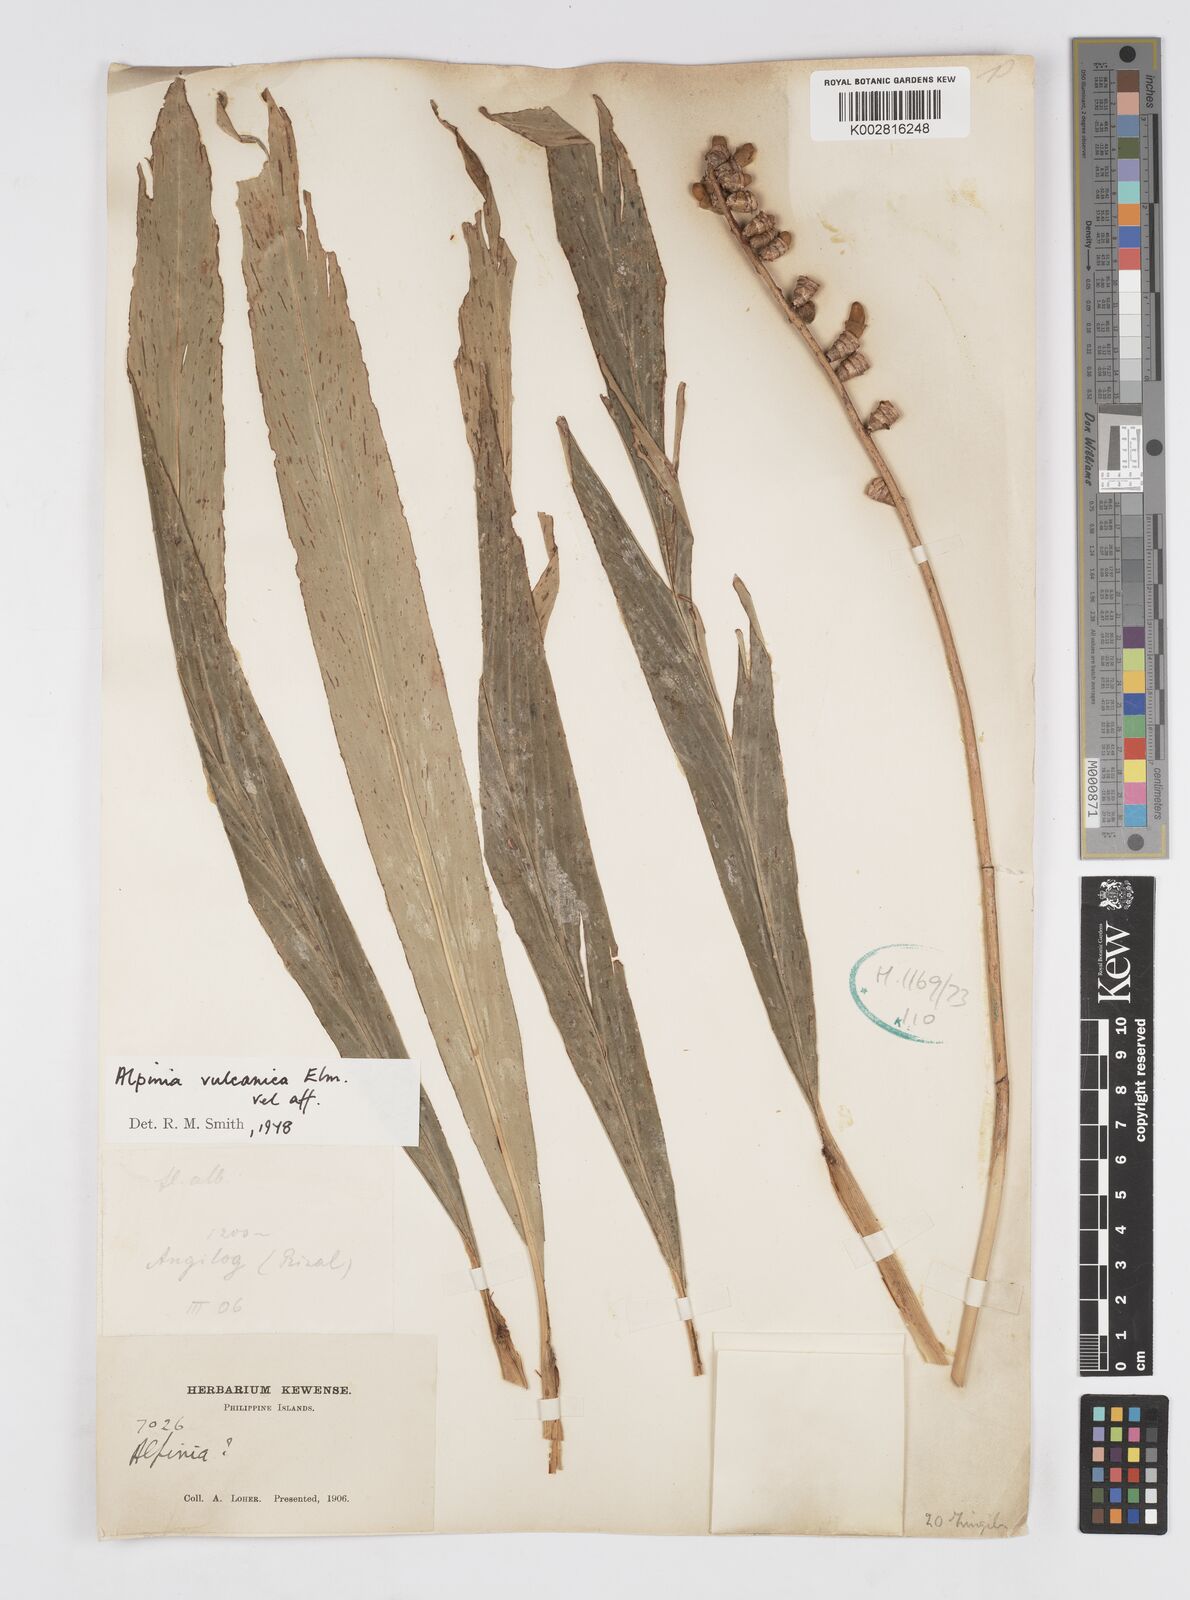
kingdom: Plantae
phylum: Tracheophyta
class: Liliopsida
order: Zingiberales
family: Zingiberaceae
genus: Alpinia
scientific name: Alpinia vulcanica
